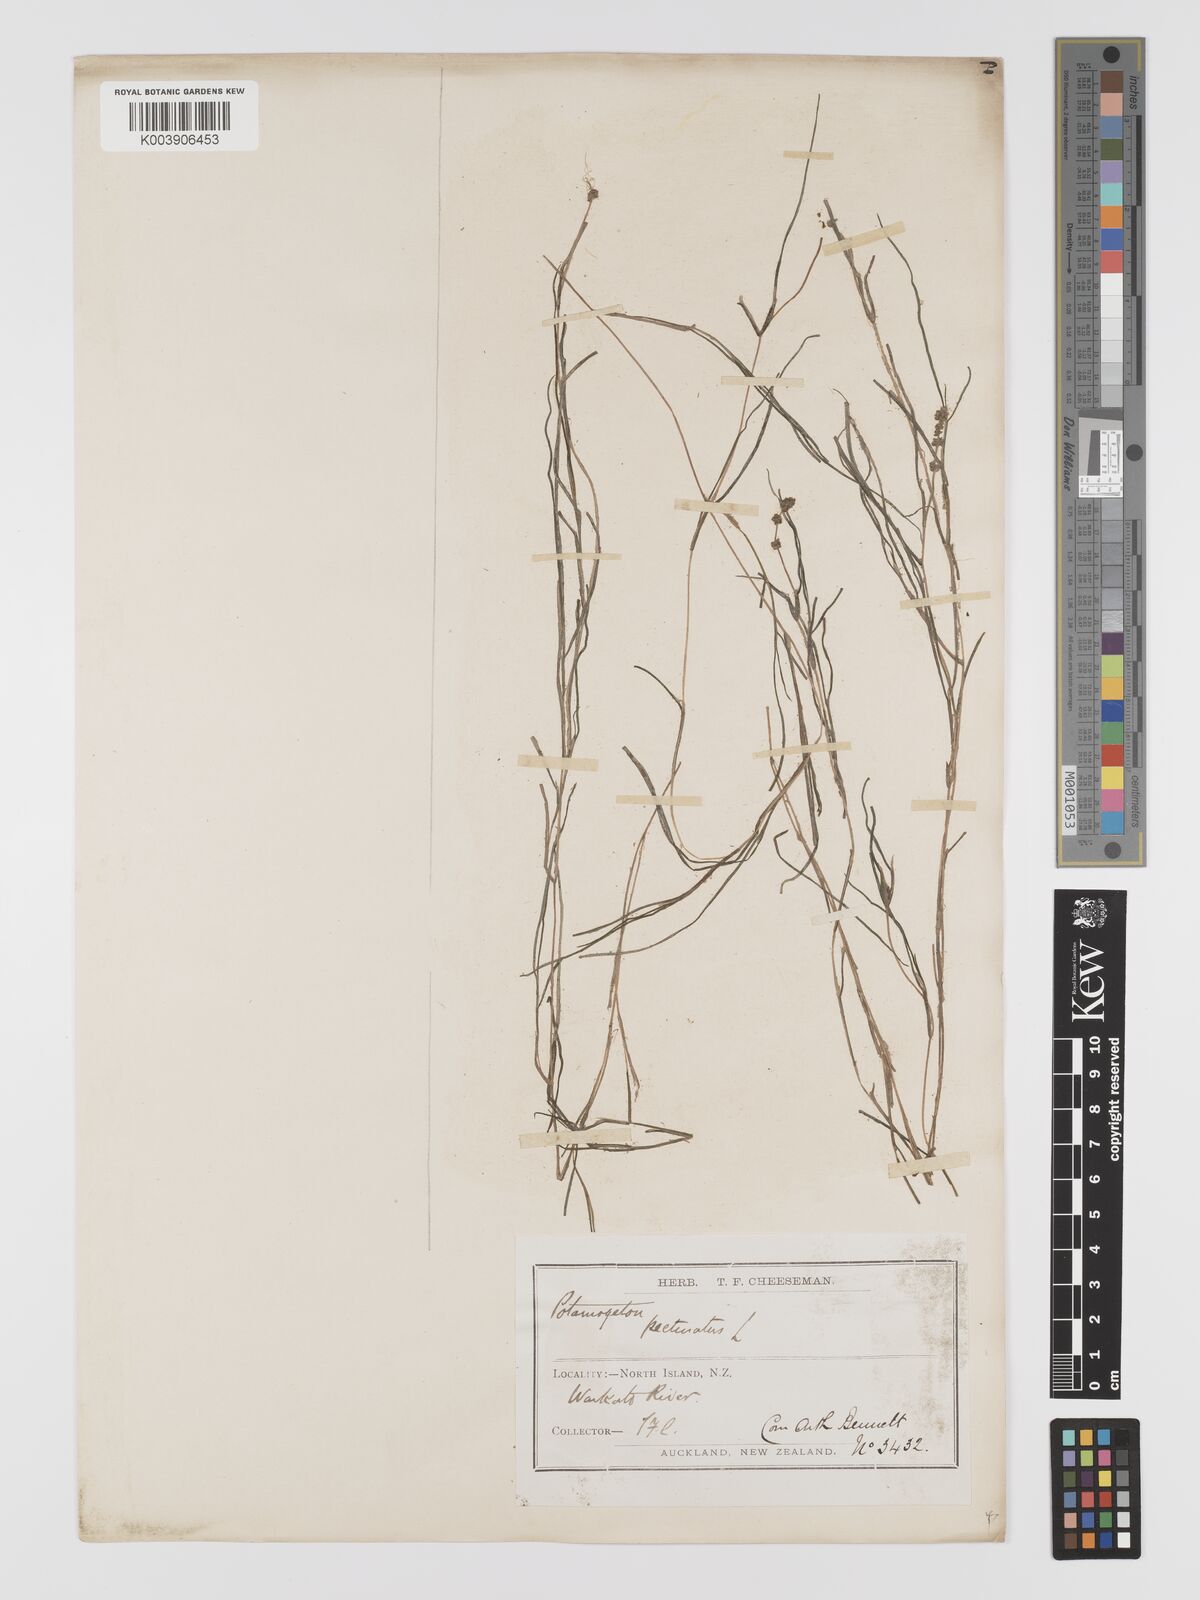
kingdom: Plantae
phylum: Tracheophyta
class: Liliopsida
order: Alismatales
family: Potamogetonaceae
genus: Stuckenia
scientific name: Stuckenia pectinata
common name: Sago pondweed
